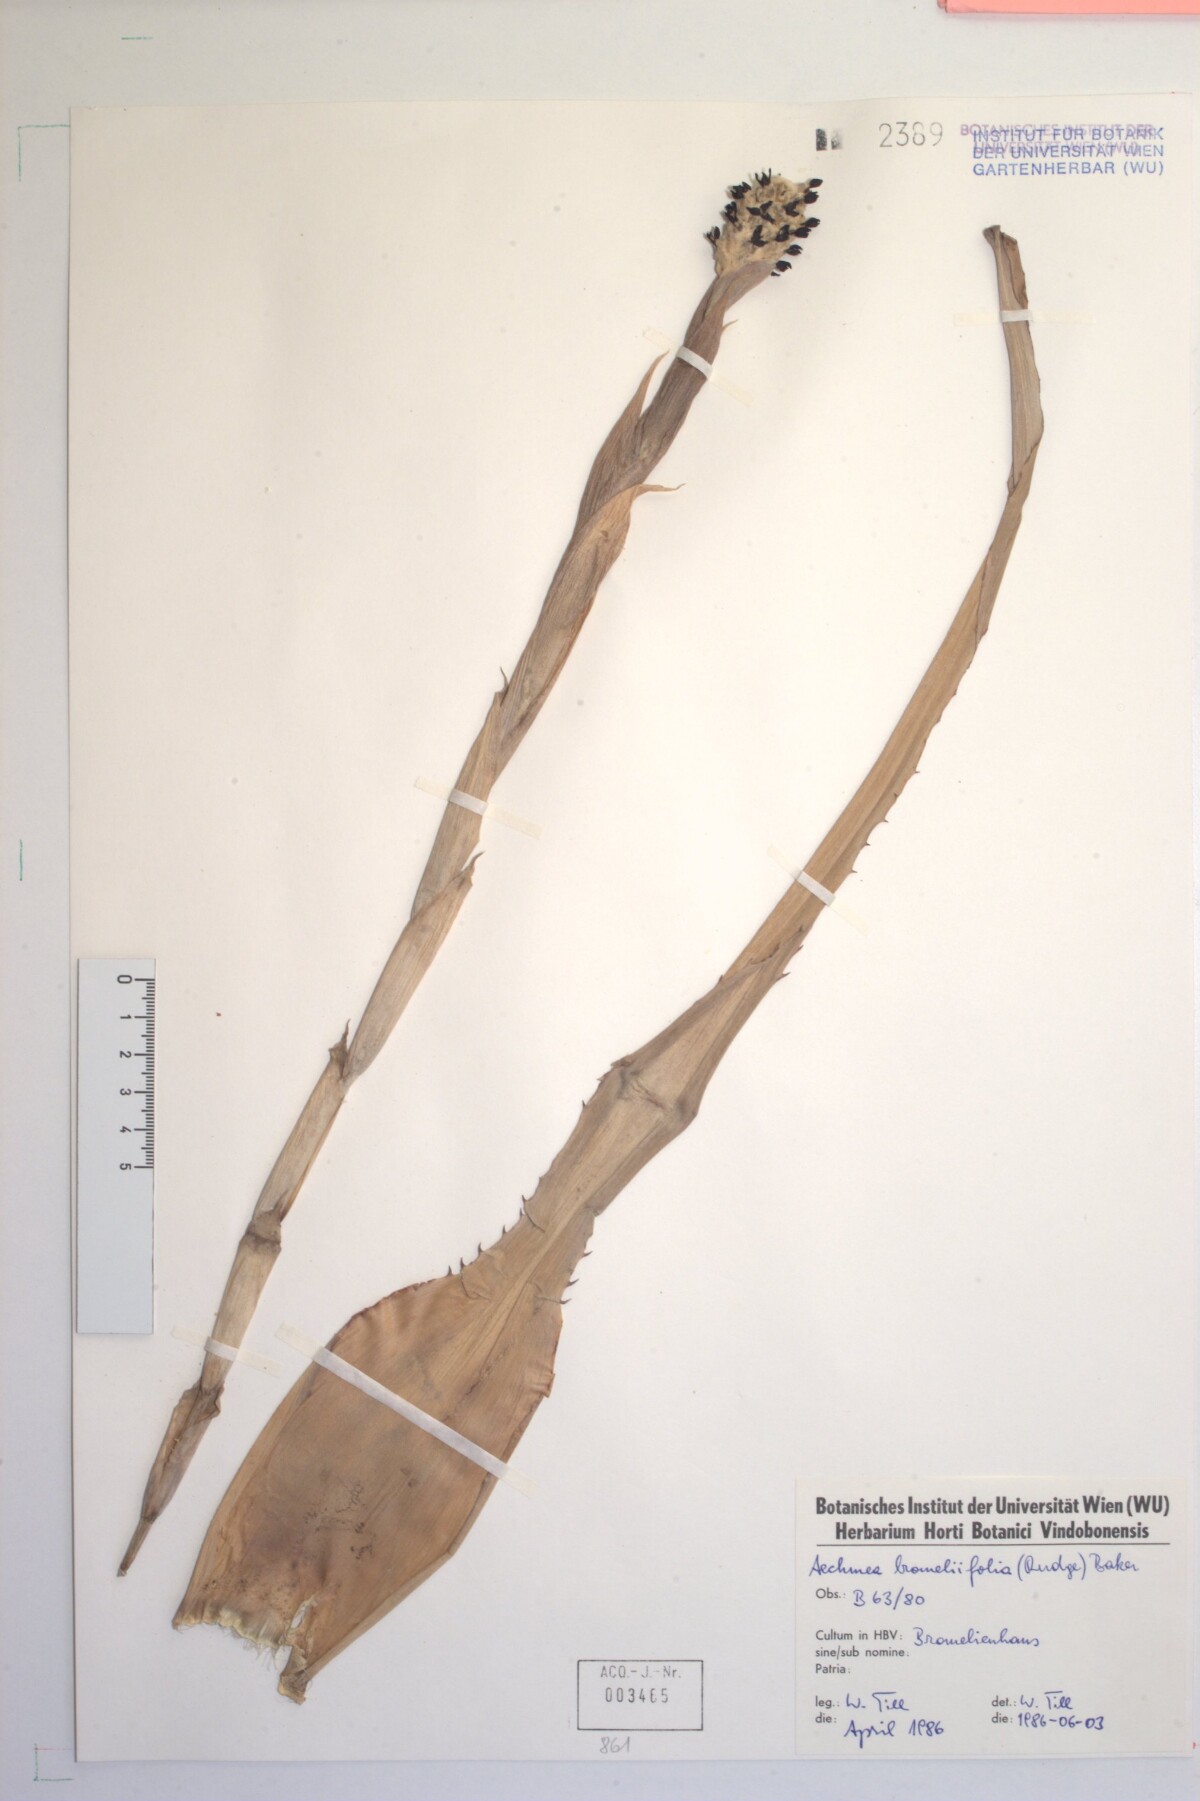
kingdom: Plantae
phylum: Tracheophyta
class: Liliopsida
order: Poales
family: Bromeliaceae
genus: Aechmea
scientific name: Aechmea bromeliifolia
